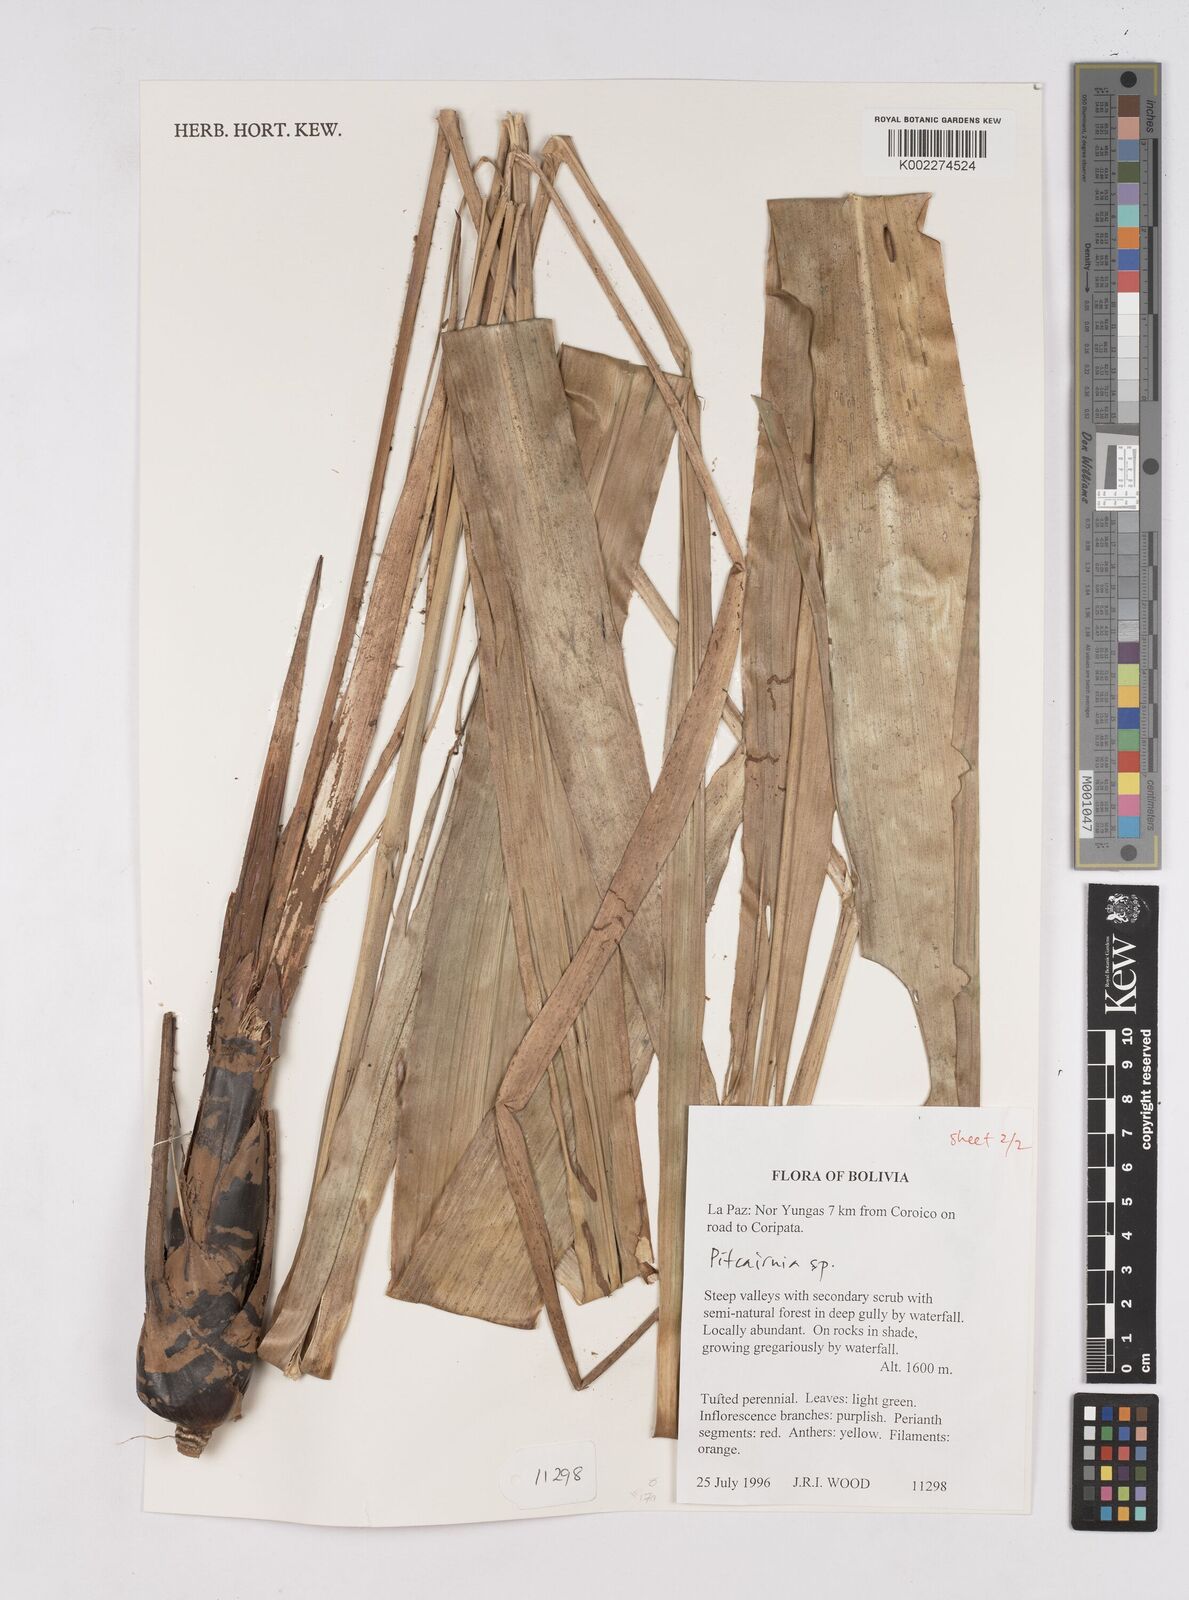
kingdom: Plantae
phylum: Tracheophyta
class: Liliopsida
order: Poales
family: Bromeliaceae
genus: Pitcairnia
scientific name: Pitcairnia
